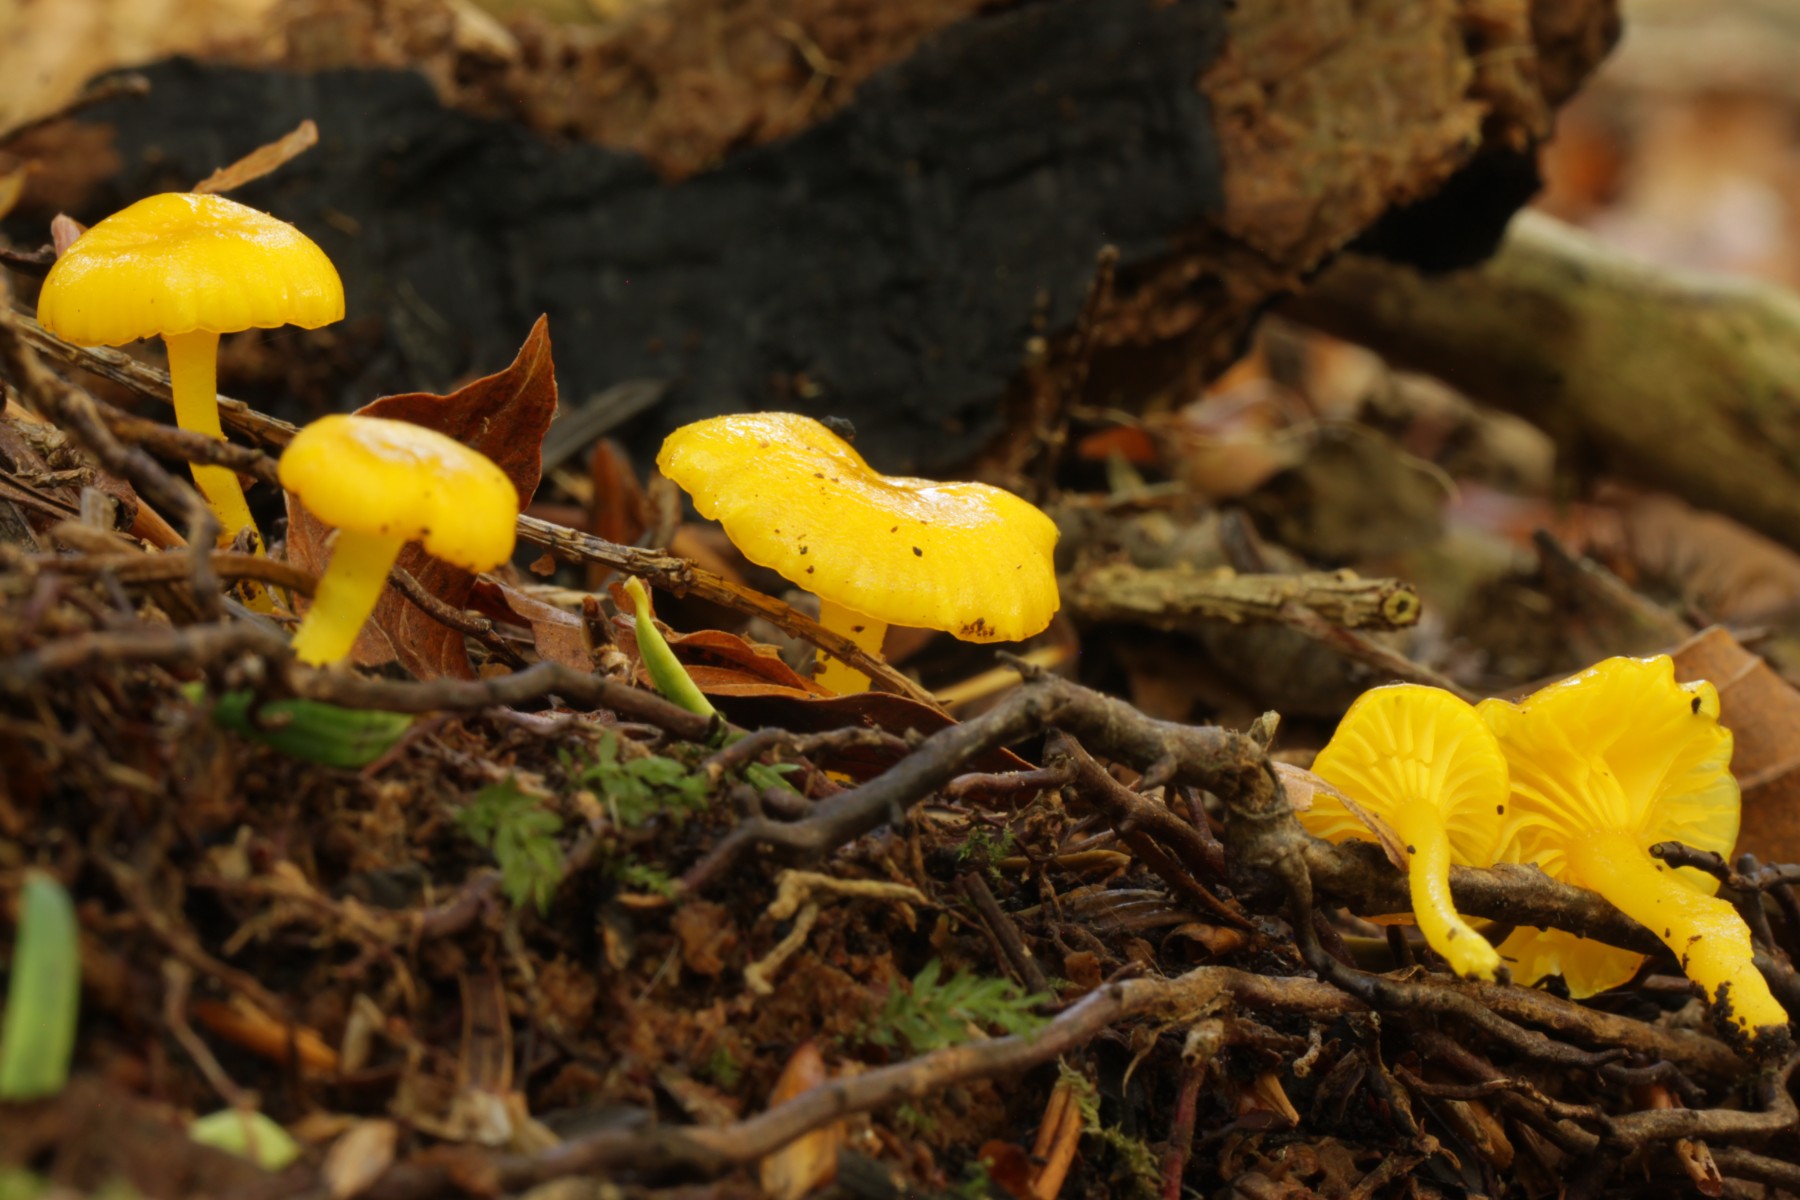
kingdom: Fungi
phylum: Basidiomycota
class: Agaricomycetes
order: Agaricales
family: Hygrophoraceae
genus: Gloioxanthomyces
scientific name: Gloioxanthomyces vitellinus
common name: kromgul vokshat
